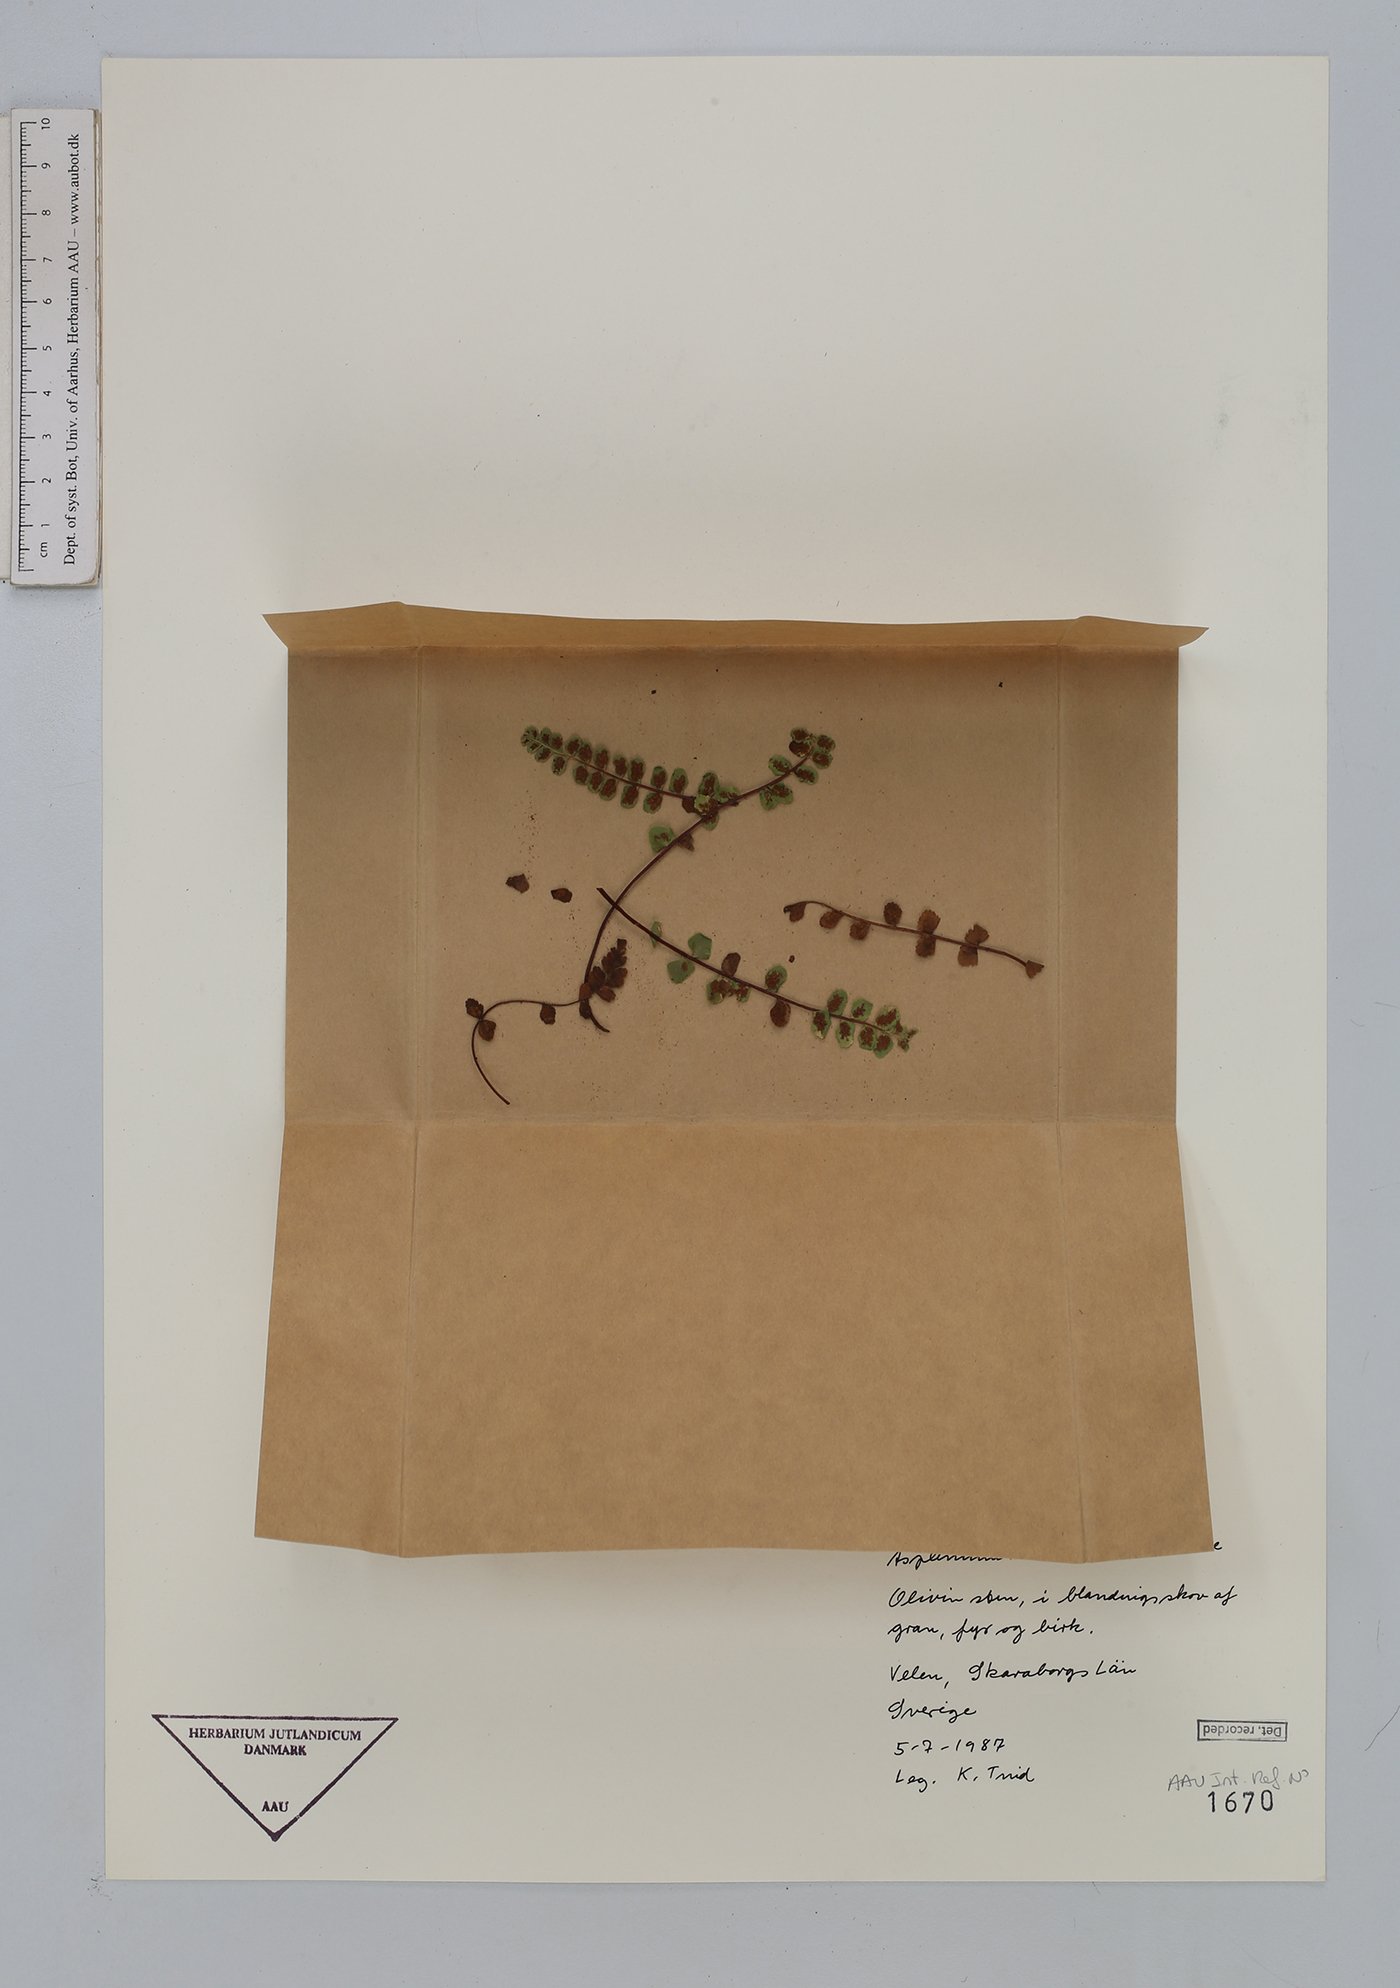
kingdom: Plantae
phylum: Tracheophyta
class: Polypodiopsida
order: Polypodiales
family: Aspleniaceae
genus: Asplenium
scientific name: Asplenium adulterinum
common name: Adulterated spleenwort
